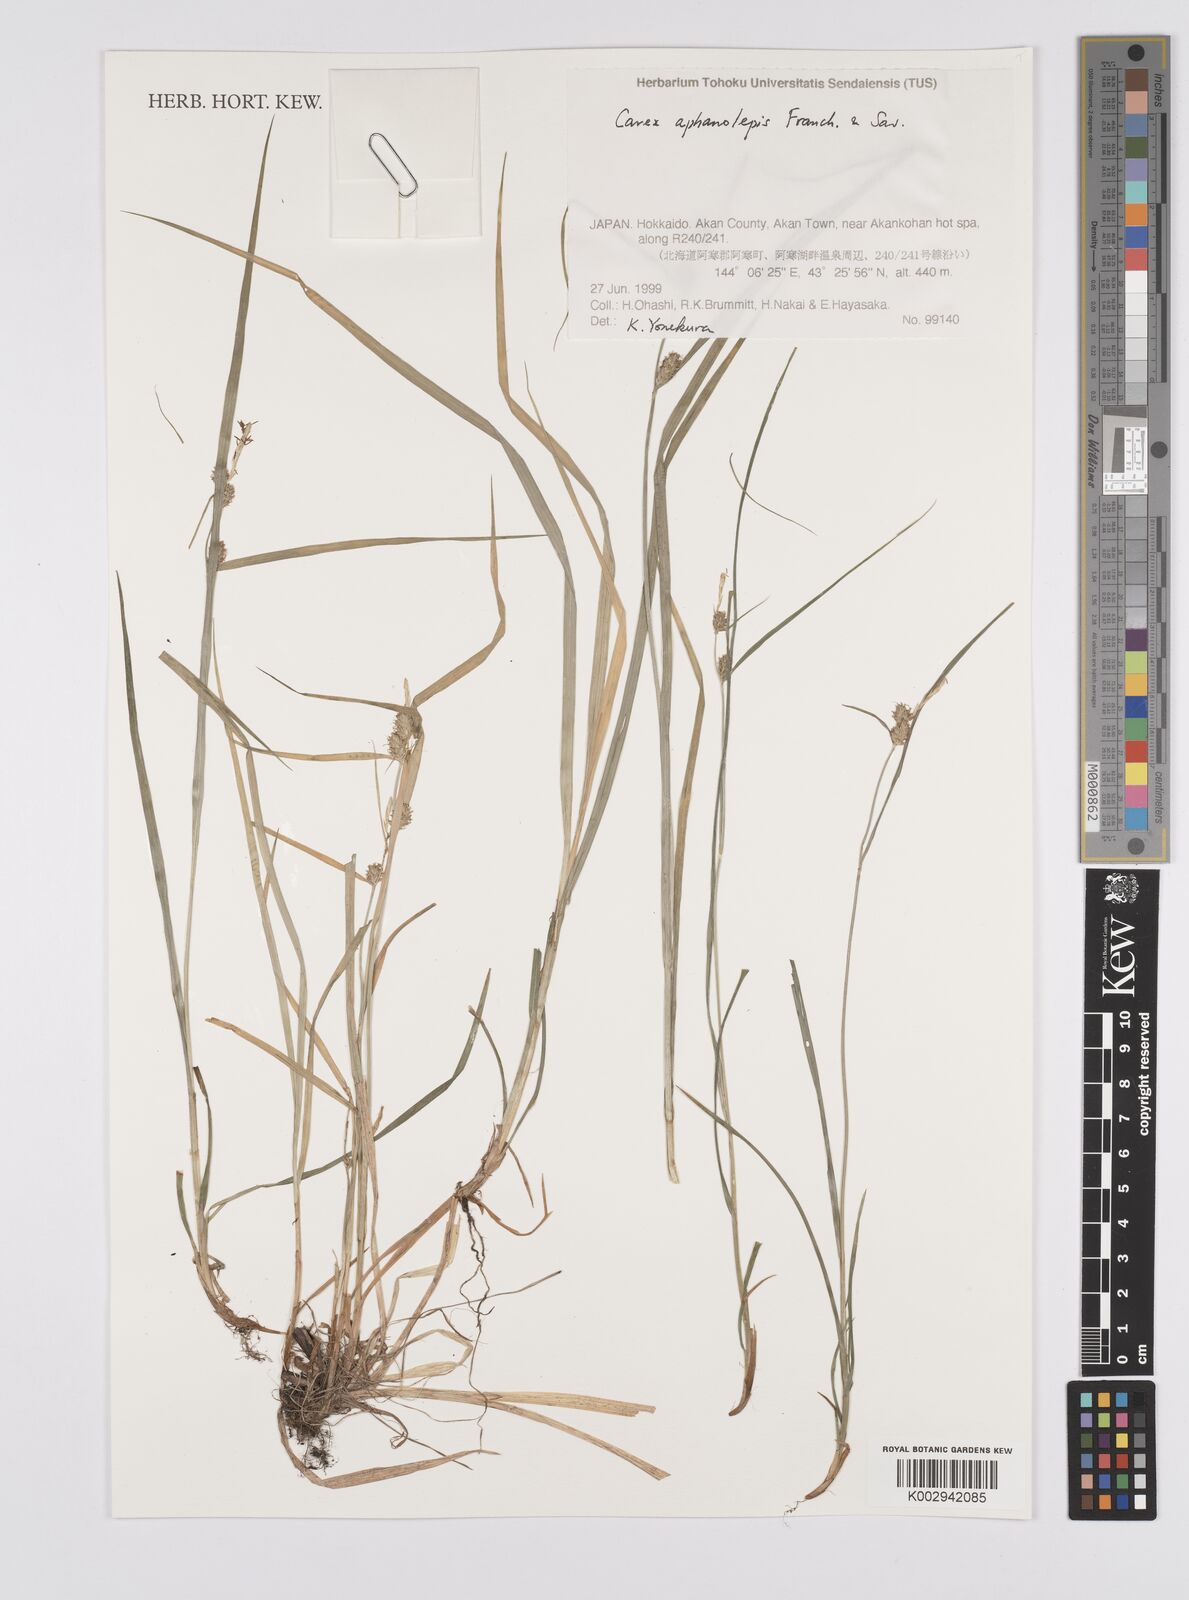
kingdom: Plantae
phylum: Tracheophyta
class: Liliopsida
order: Poales
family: Cyperaceae
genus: Carex
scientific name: Carex japonica
